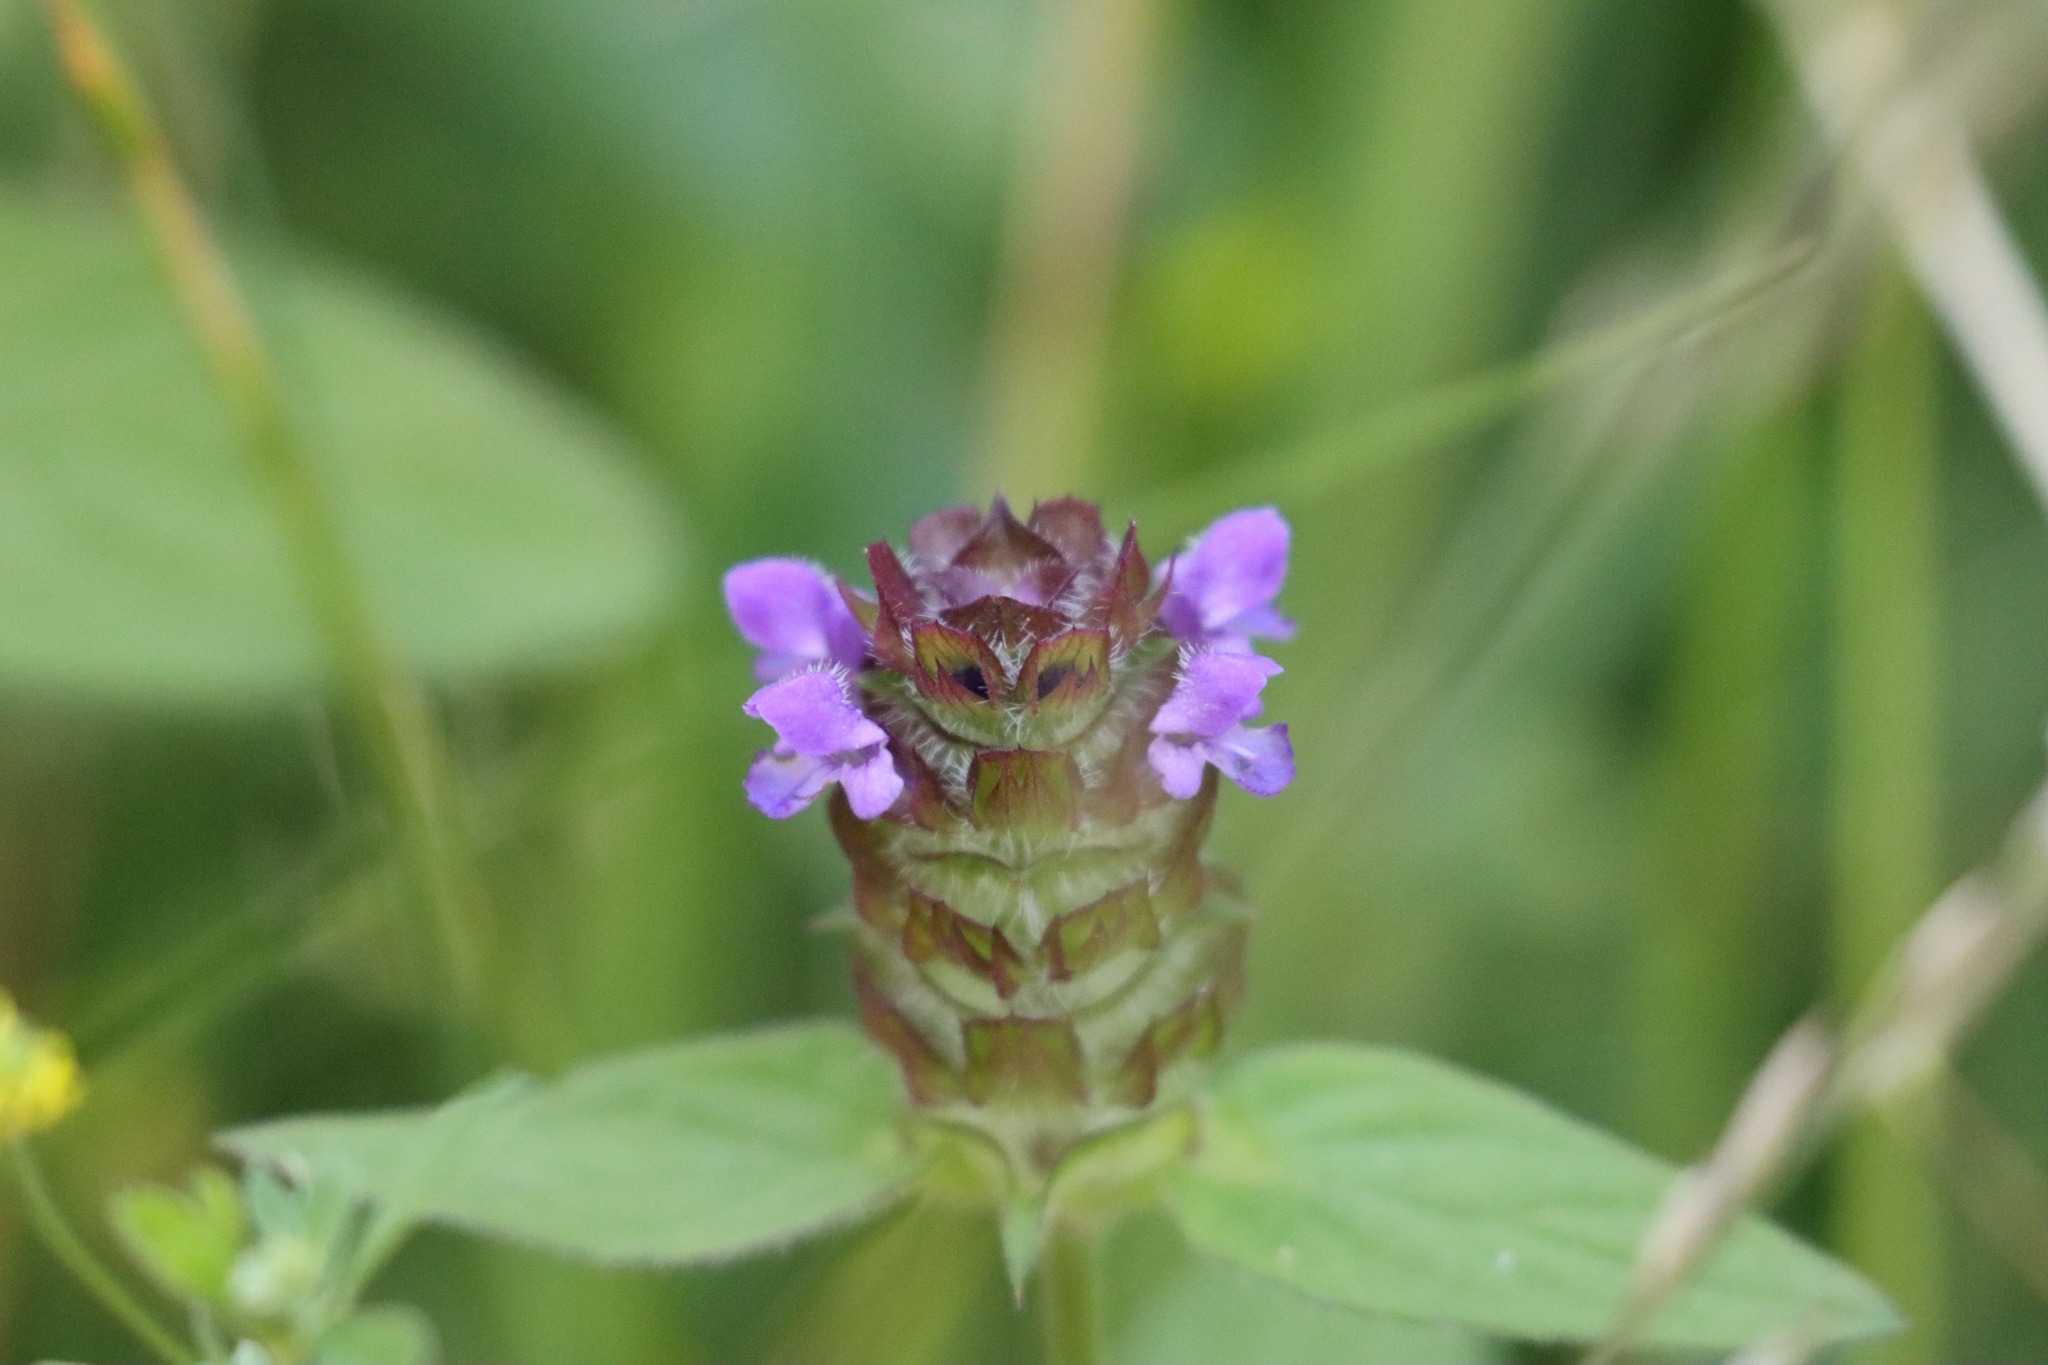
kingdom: Plantae
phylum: Tracheophyta
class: Magnoliopsida
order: Lamiales
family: Lamiaceae
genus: Prunella
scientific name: Prunella vulgaris
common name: Almindelig brunelle
